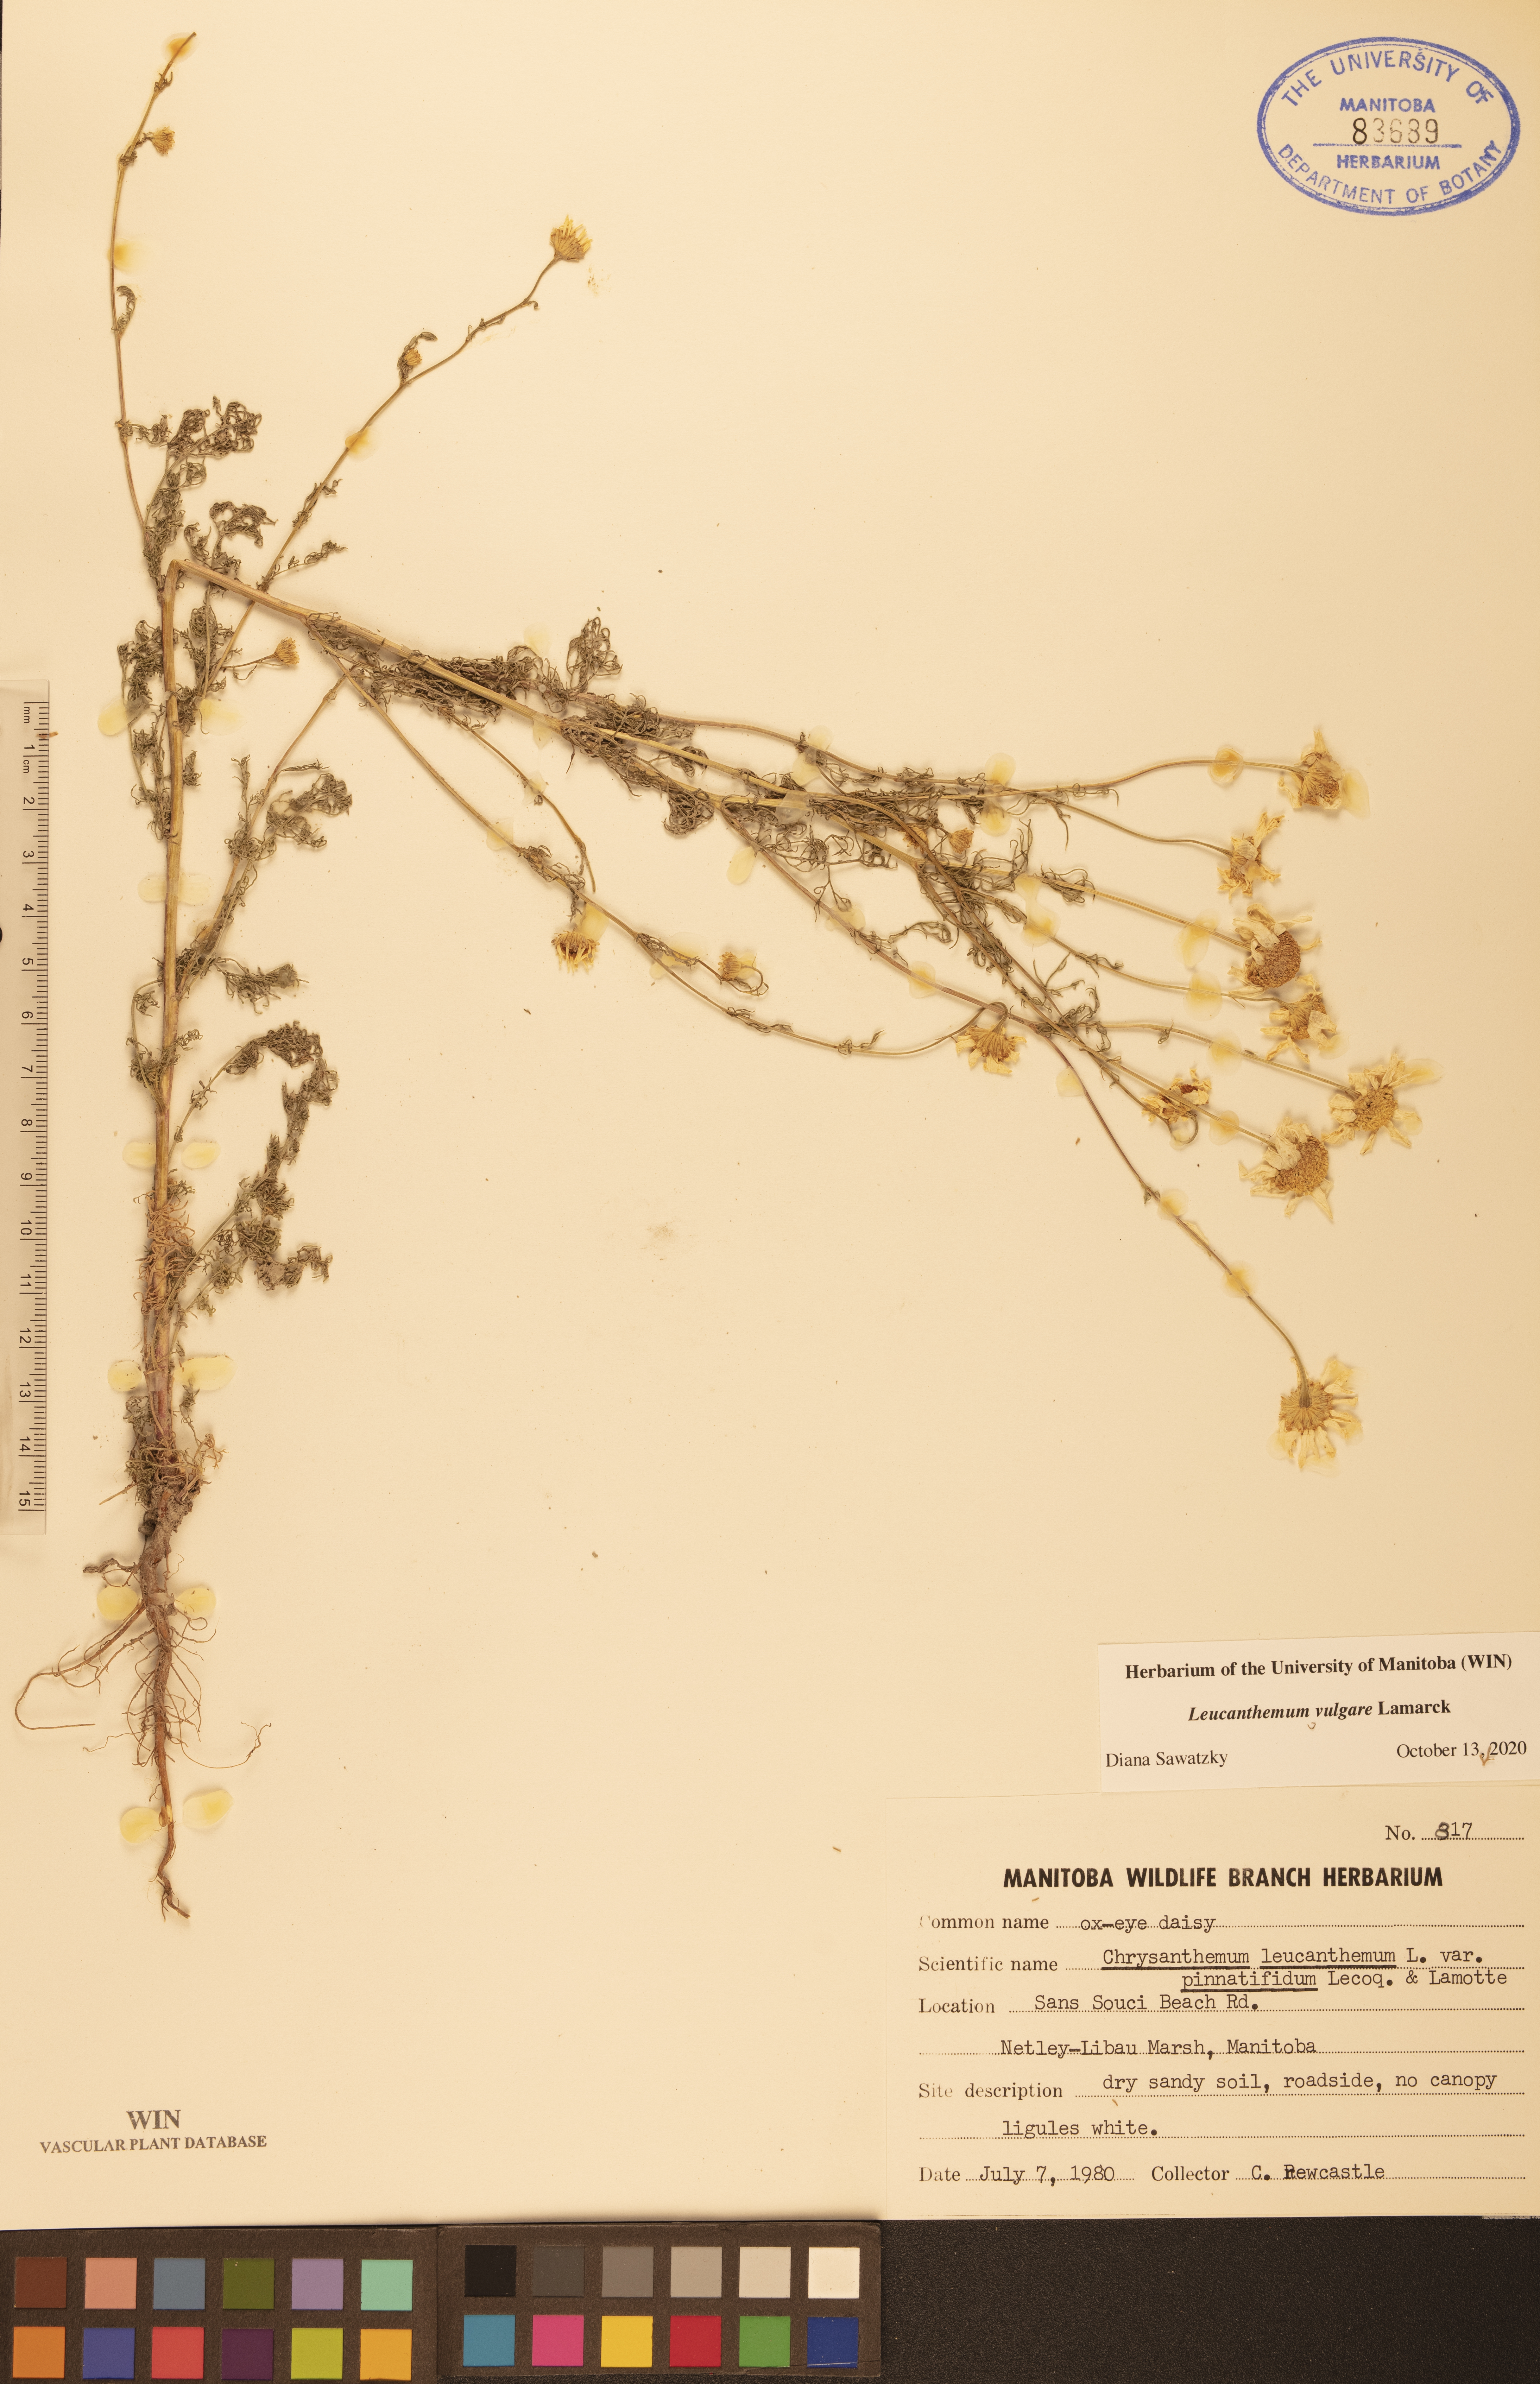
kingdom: Plantae
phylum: Tracheophyta
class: Magnoliopsida
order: Asterales
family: Asteraceae
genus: Leucanthemum
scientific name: Leucanthemum vulgare
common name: Oxeye daisy
